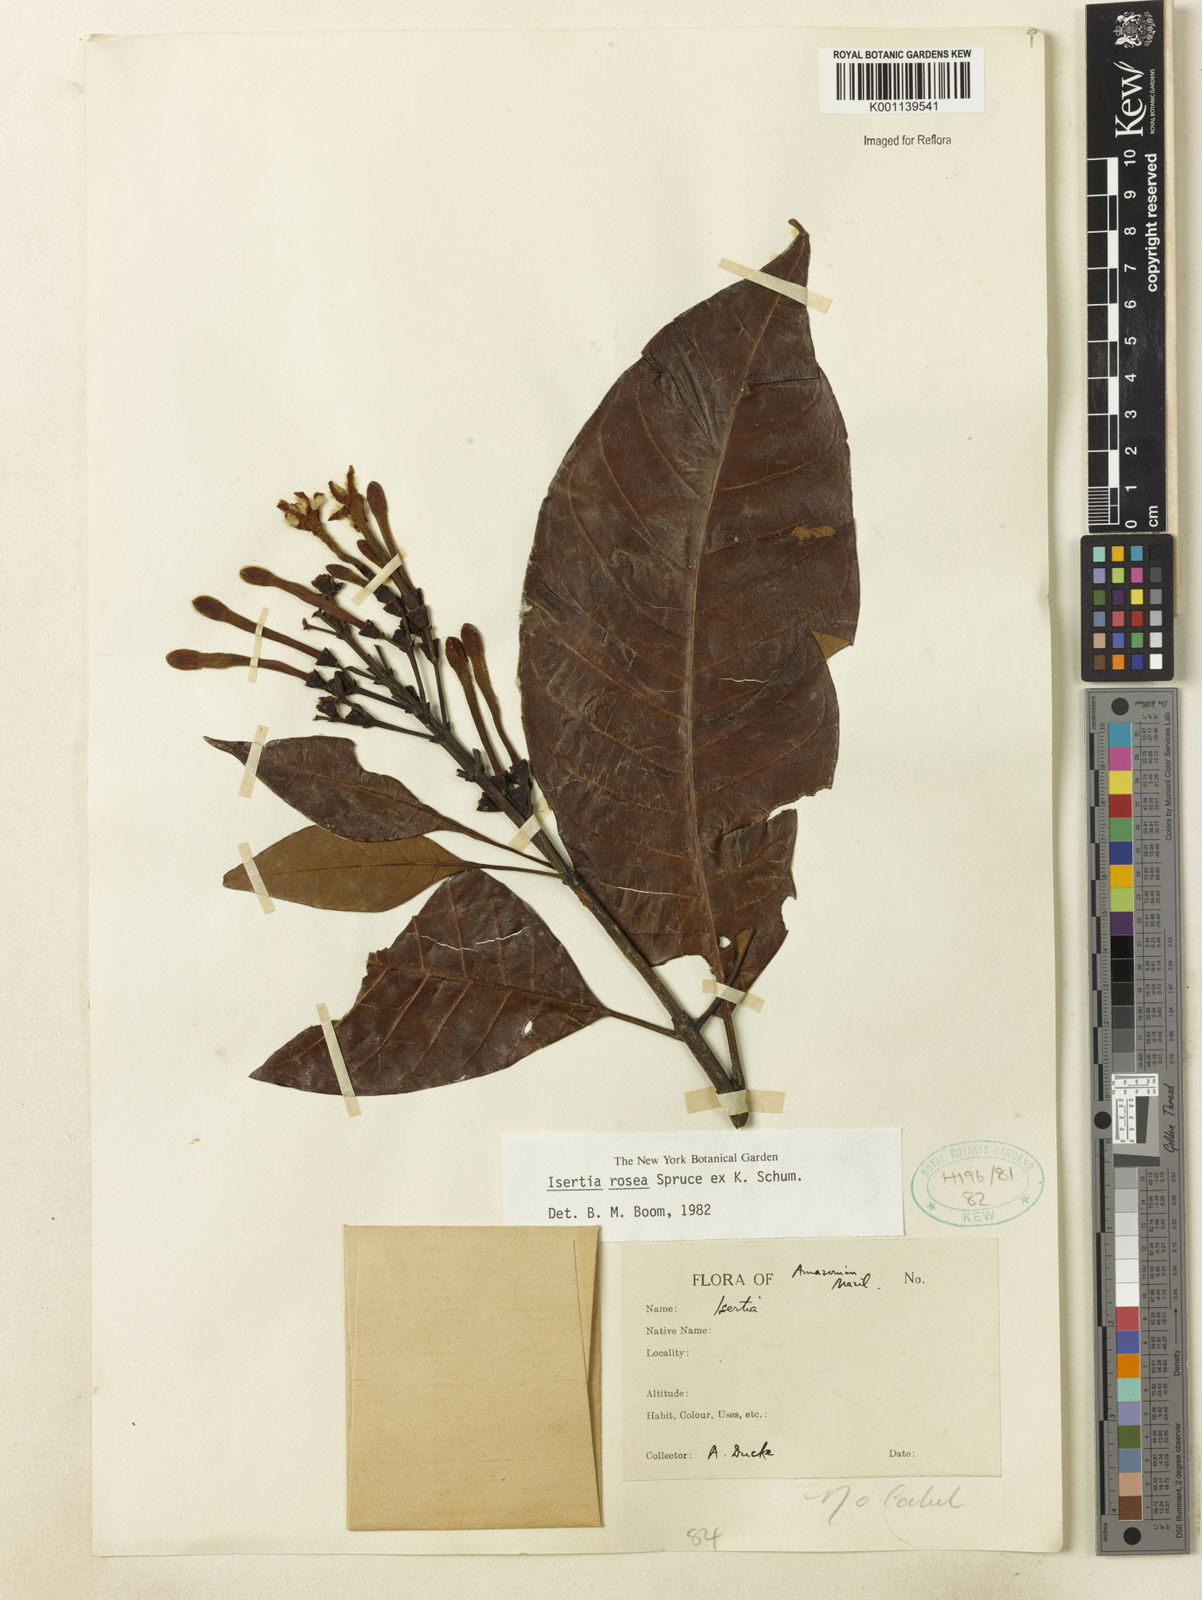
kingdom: Plantae
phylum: Tracheophyta
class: Magnoliopsida
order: Gentianales
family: Rubiaceae
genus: Isertia
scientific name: Isertia rosea
